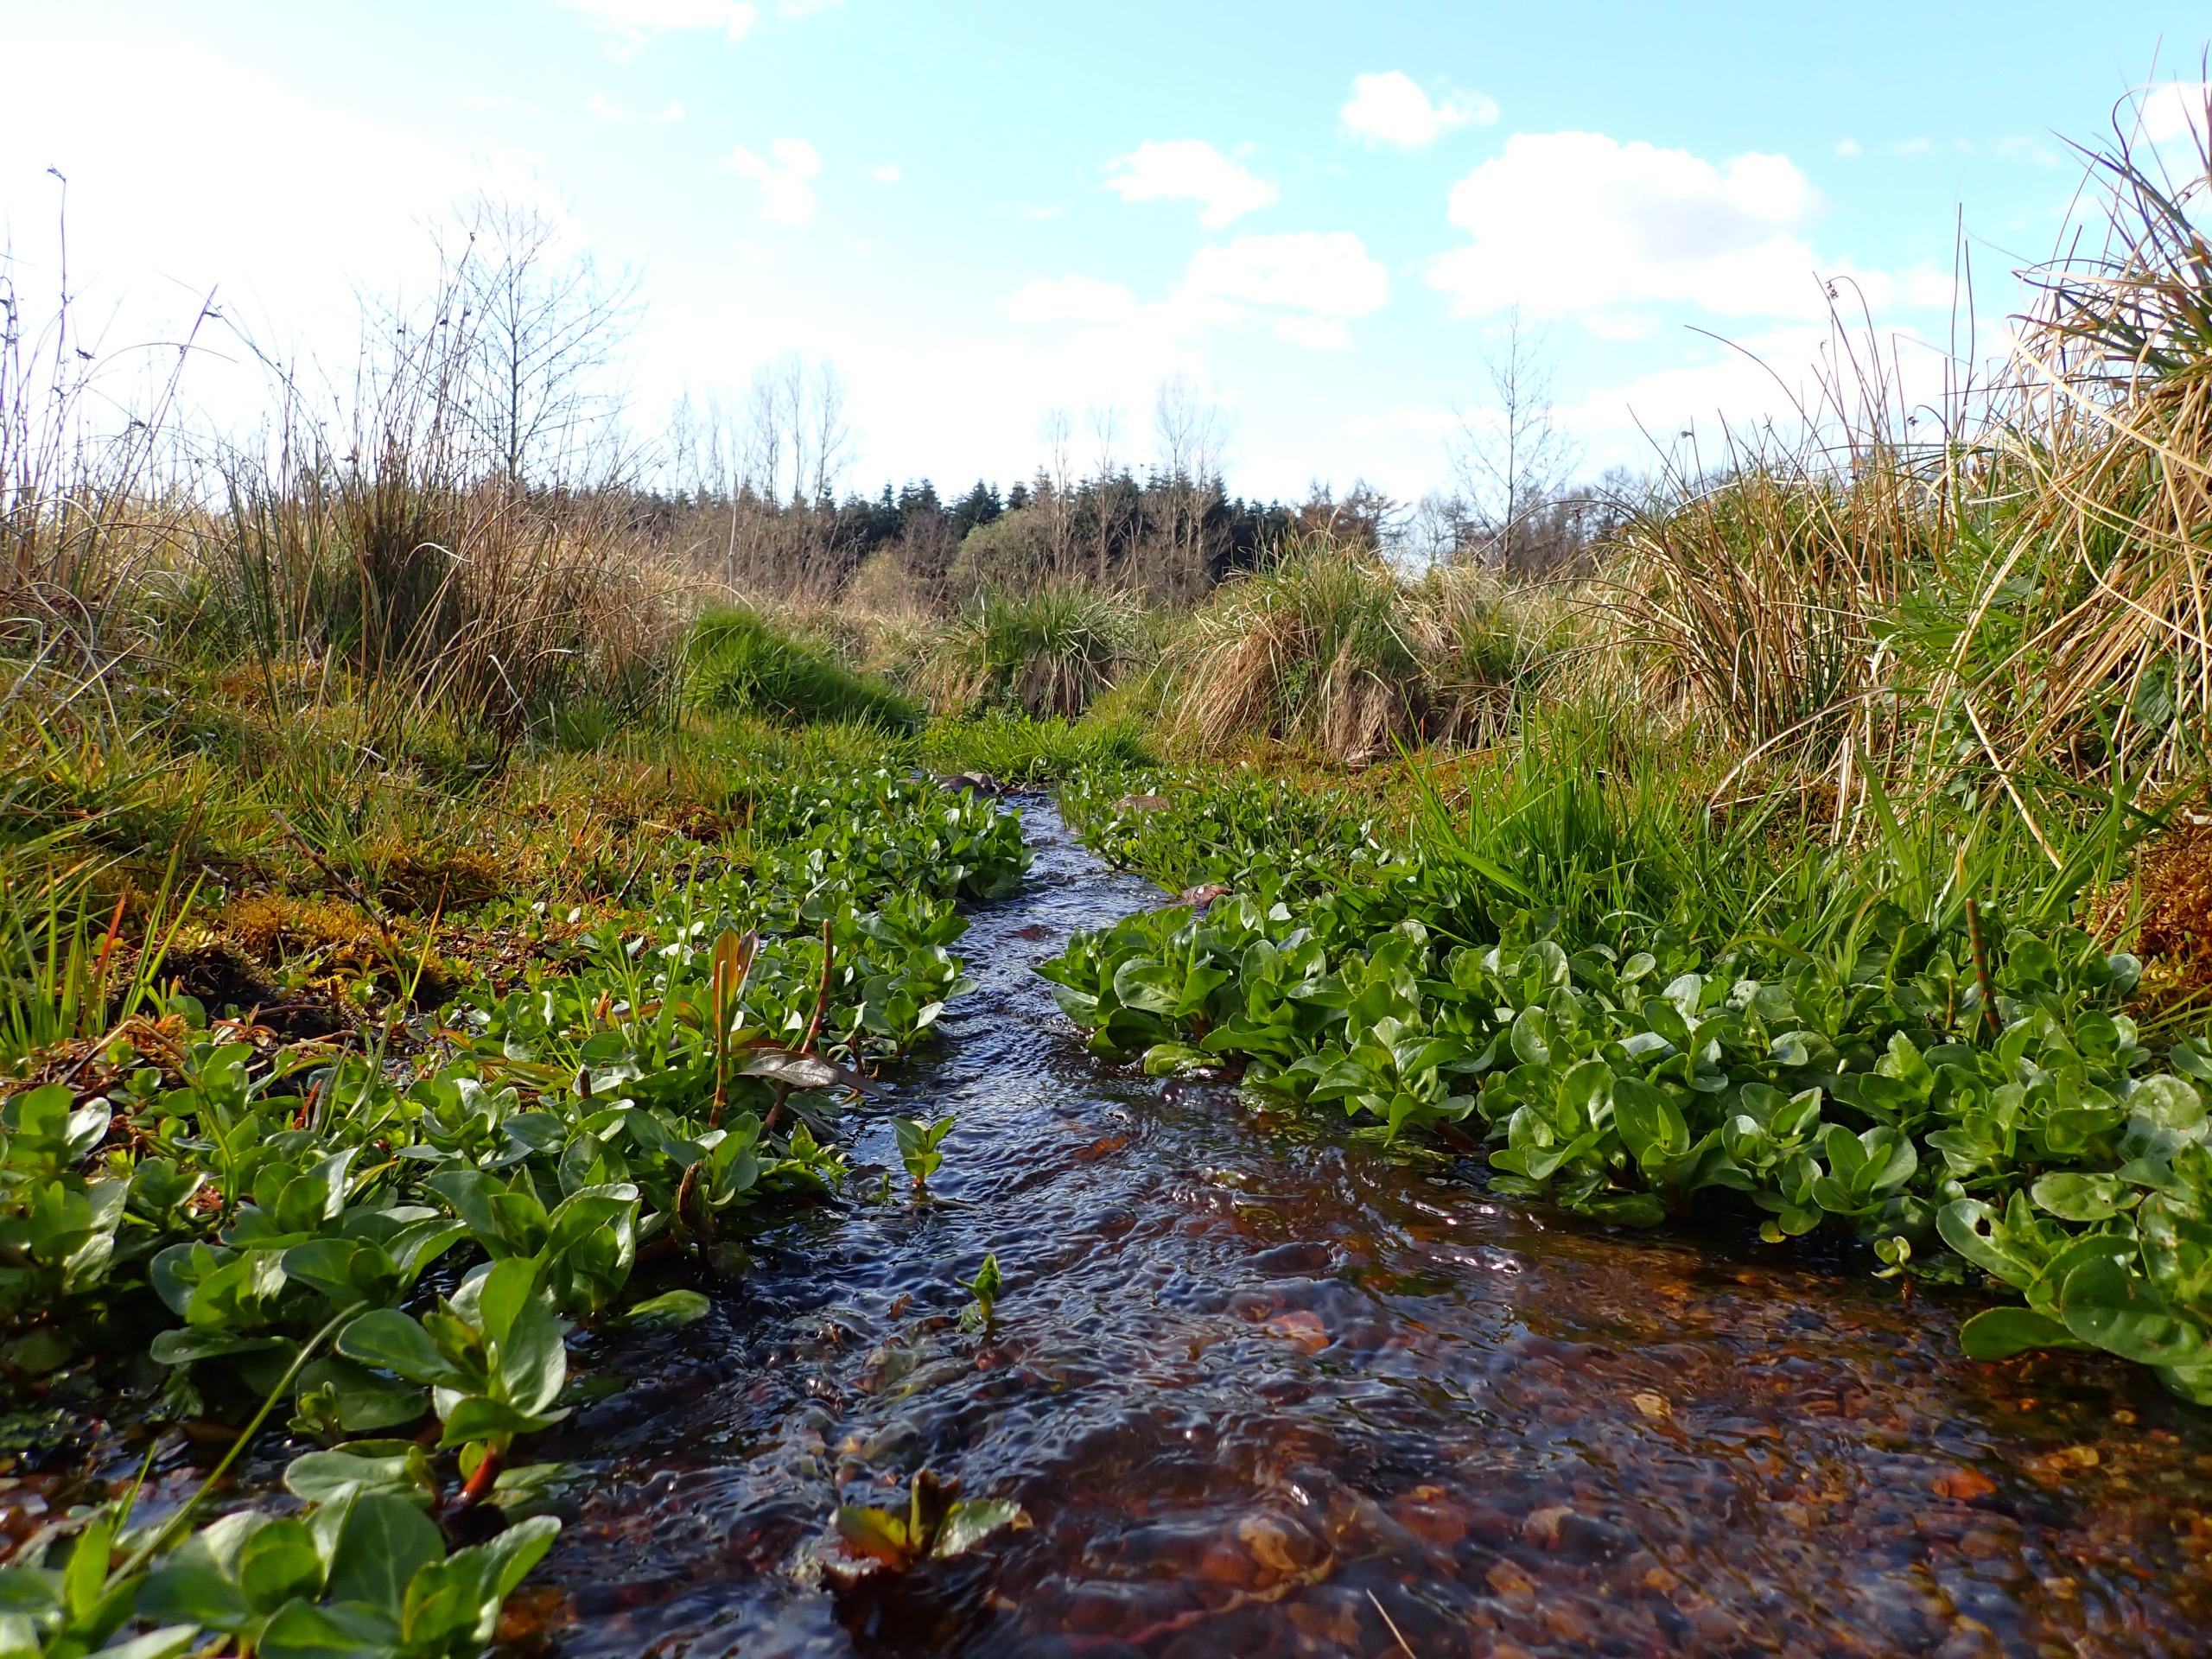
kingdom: Plantae
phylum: Tracheophyta
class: Magnoliopsida
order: Lamiales
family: Plantaginaceae
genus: Veronica
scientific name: Veronica beccabunga
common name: Tykbladet ærenpris
